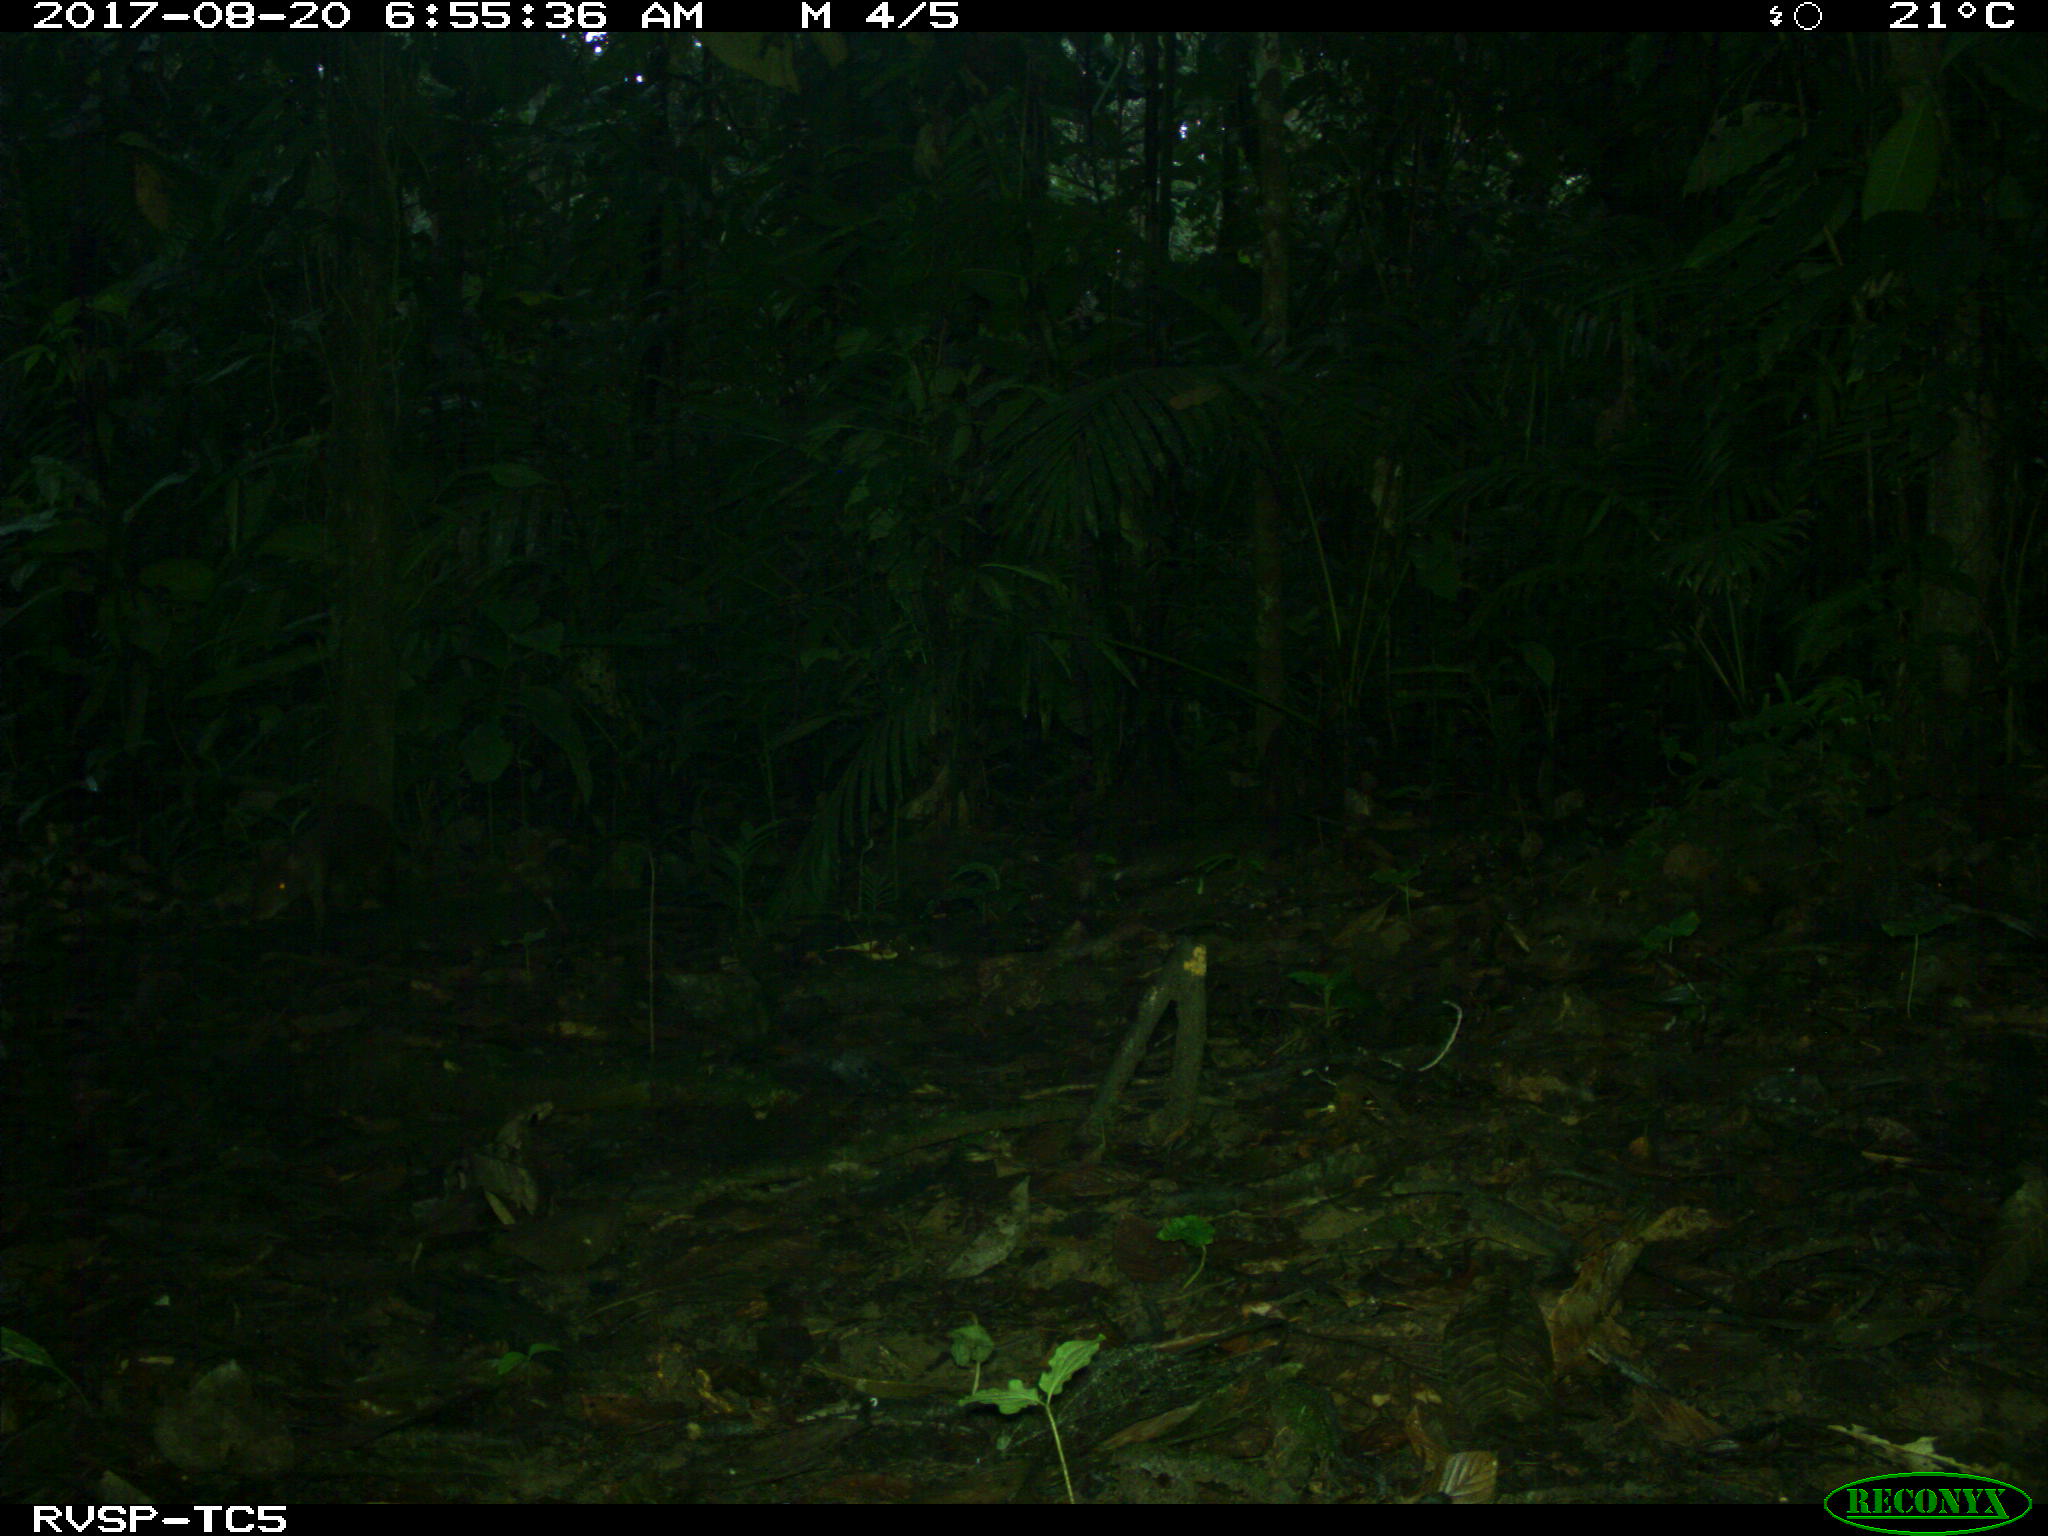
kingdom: Animalia
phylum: Chordata
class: Mammalia
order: Rodentia
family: Dasyproctidae
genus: Dasyprocta
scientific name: Dasyprocta punctata
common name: Central american agouti
